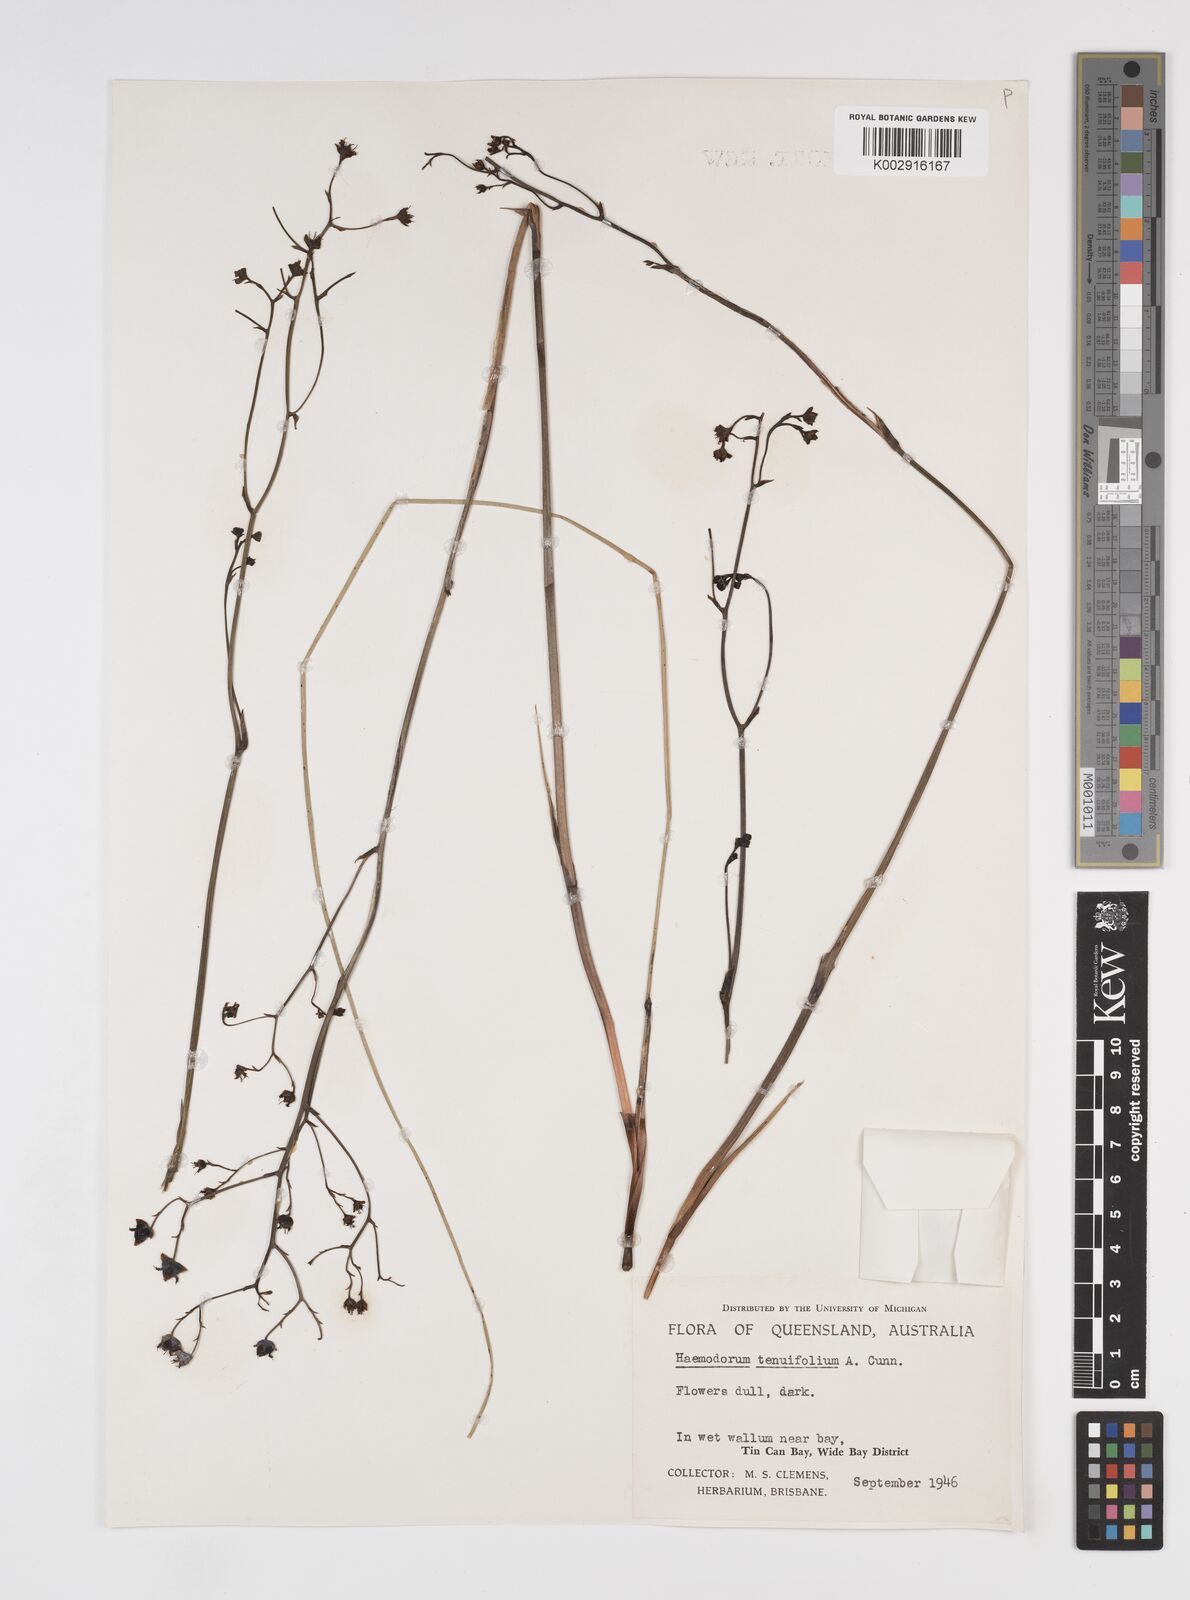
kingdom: Plantae
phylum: Tracheophyta
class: Liliopsida
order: Commelinales
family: Haemodoraceae
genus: Haemodorum
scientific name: Haemodorum tenuifolium
